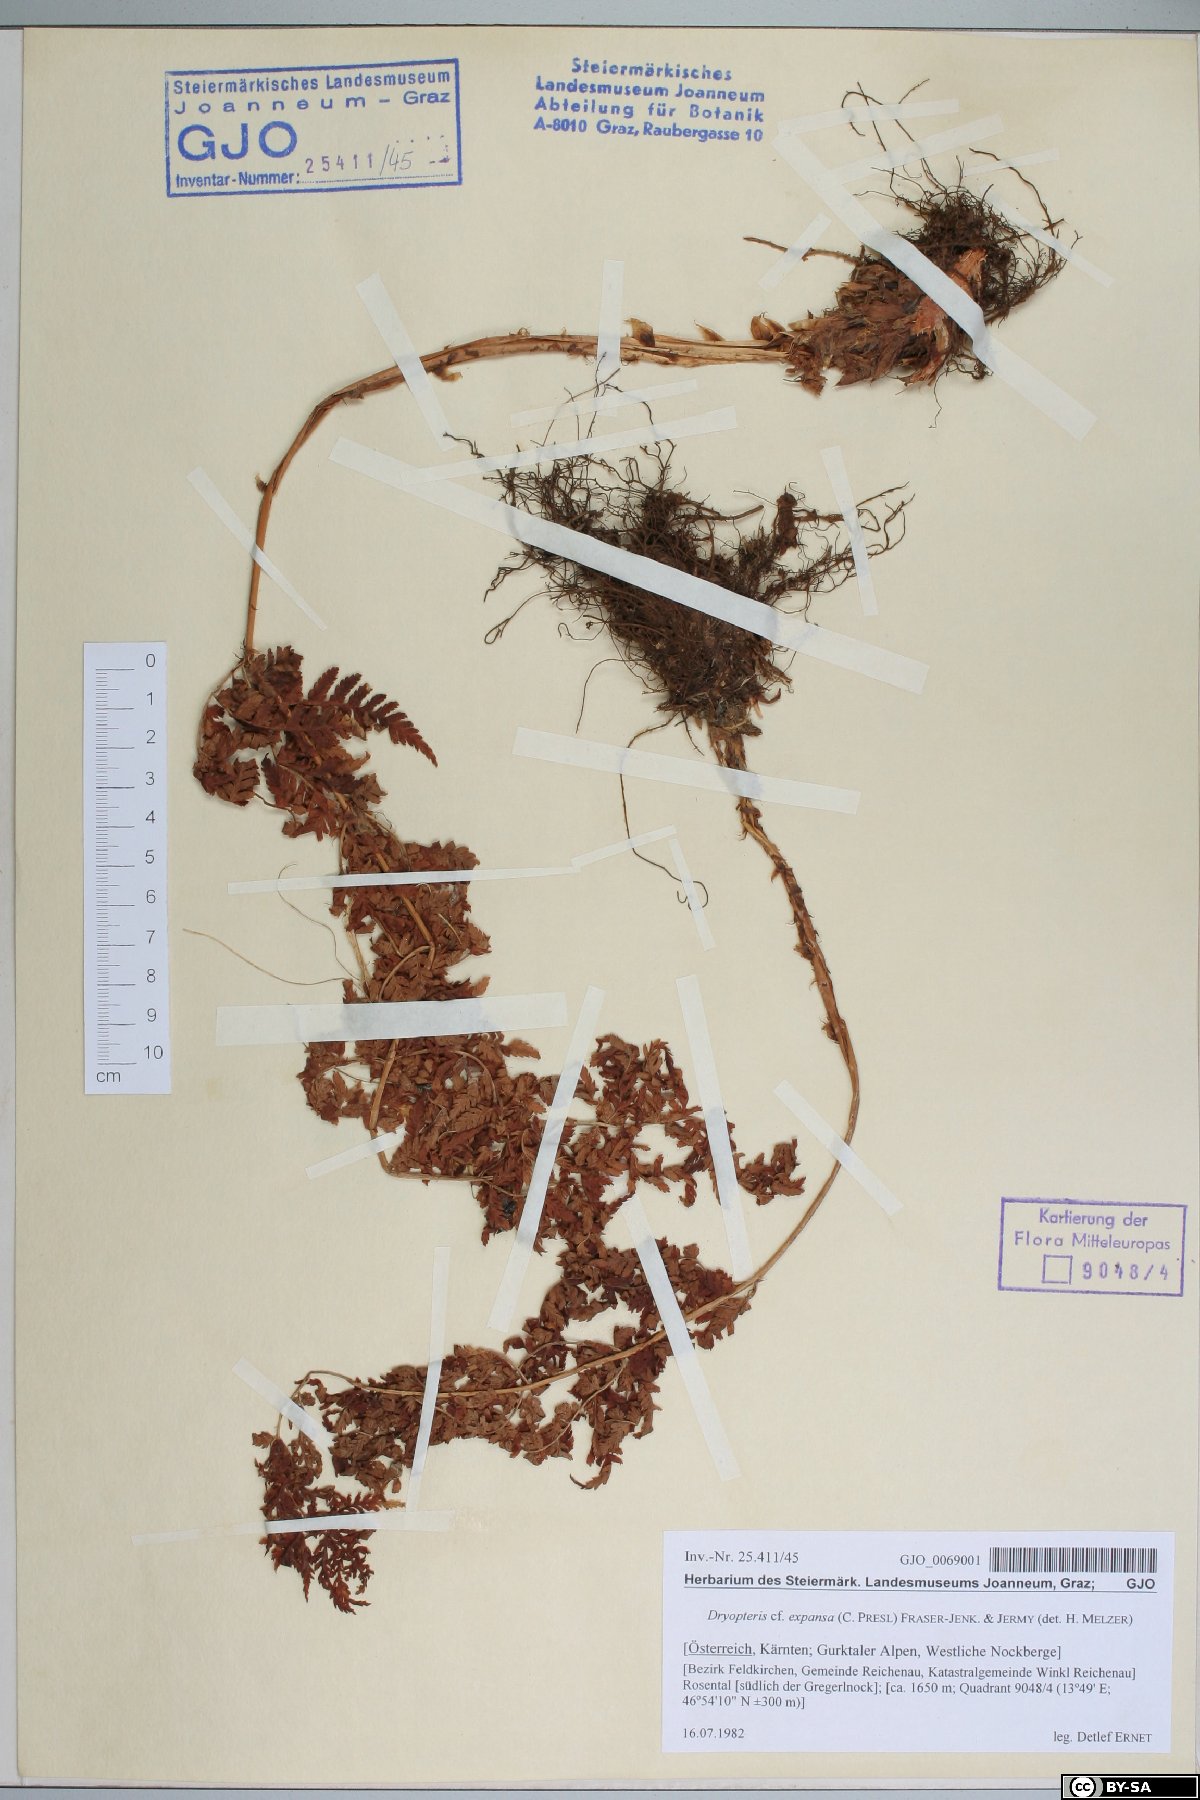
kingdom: Plantae
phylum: Tracheophyta
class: Polypodiopsida
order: Polypodiales
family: Dryopteridaceae
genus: Dryopteris
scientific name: Dryopteris expansa
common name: Northern buckler fern
